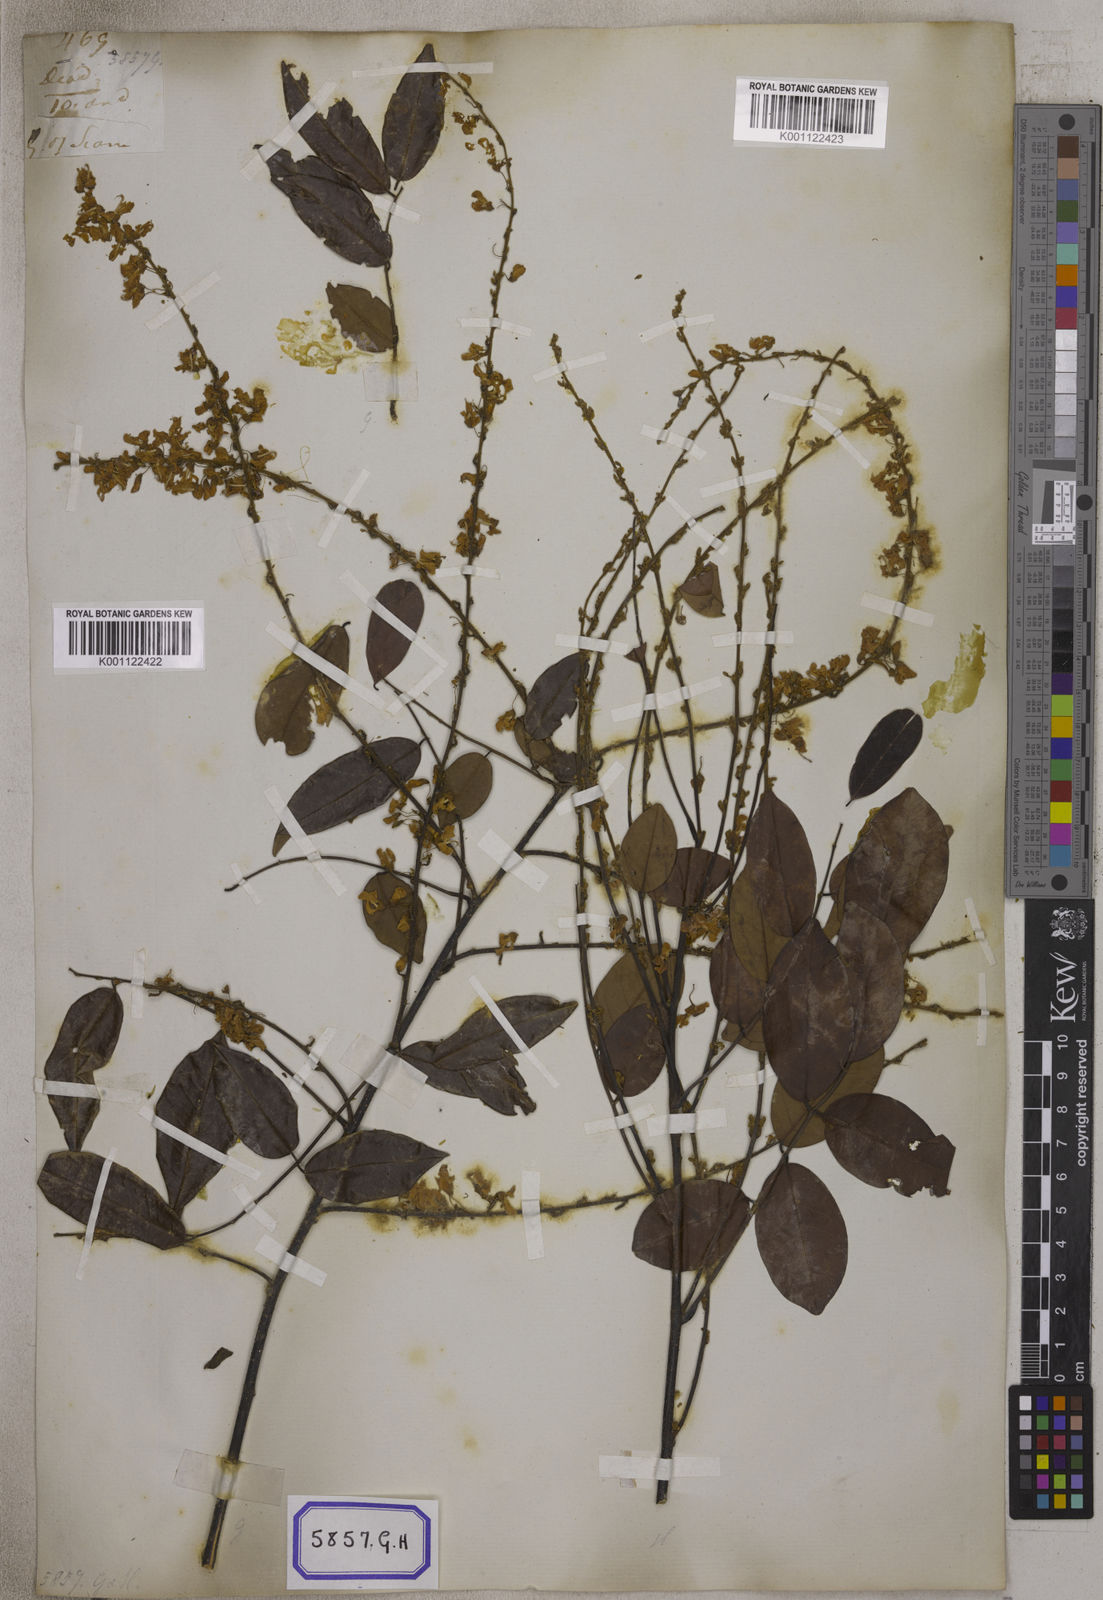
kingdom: Plantae
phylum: Tracheophyta
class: Magnoliopsida
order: Fabales
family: Fabaceae
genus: Brachypterum
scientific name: Brachypterum scandens
